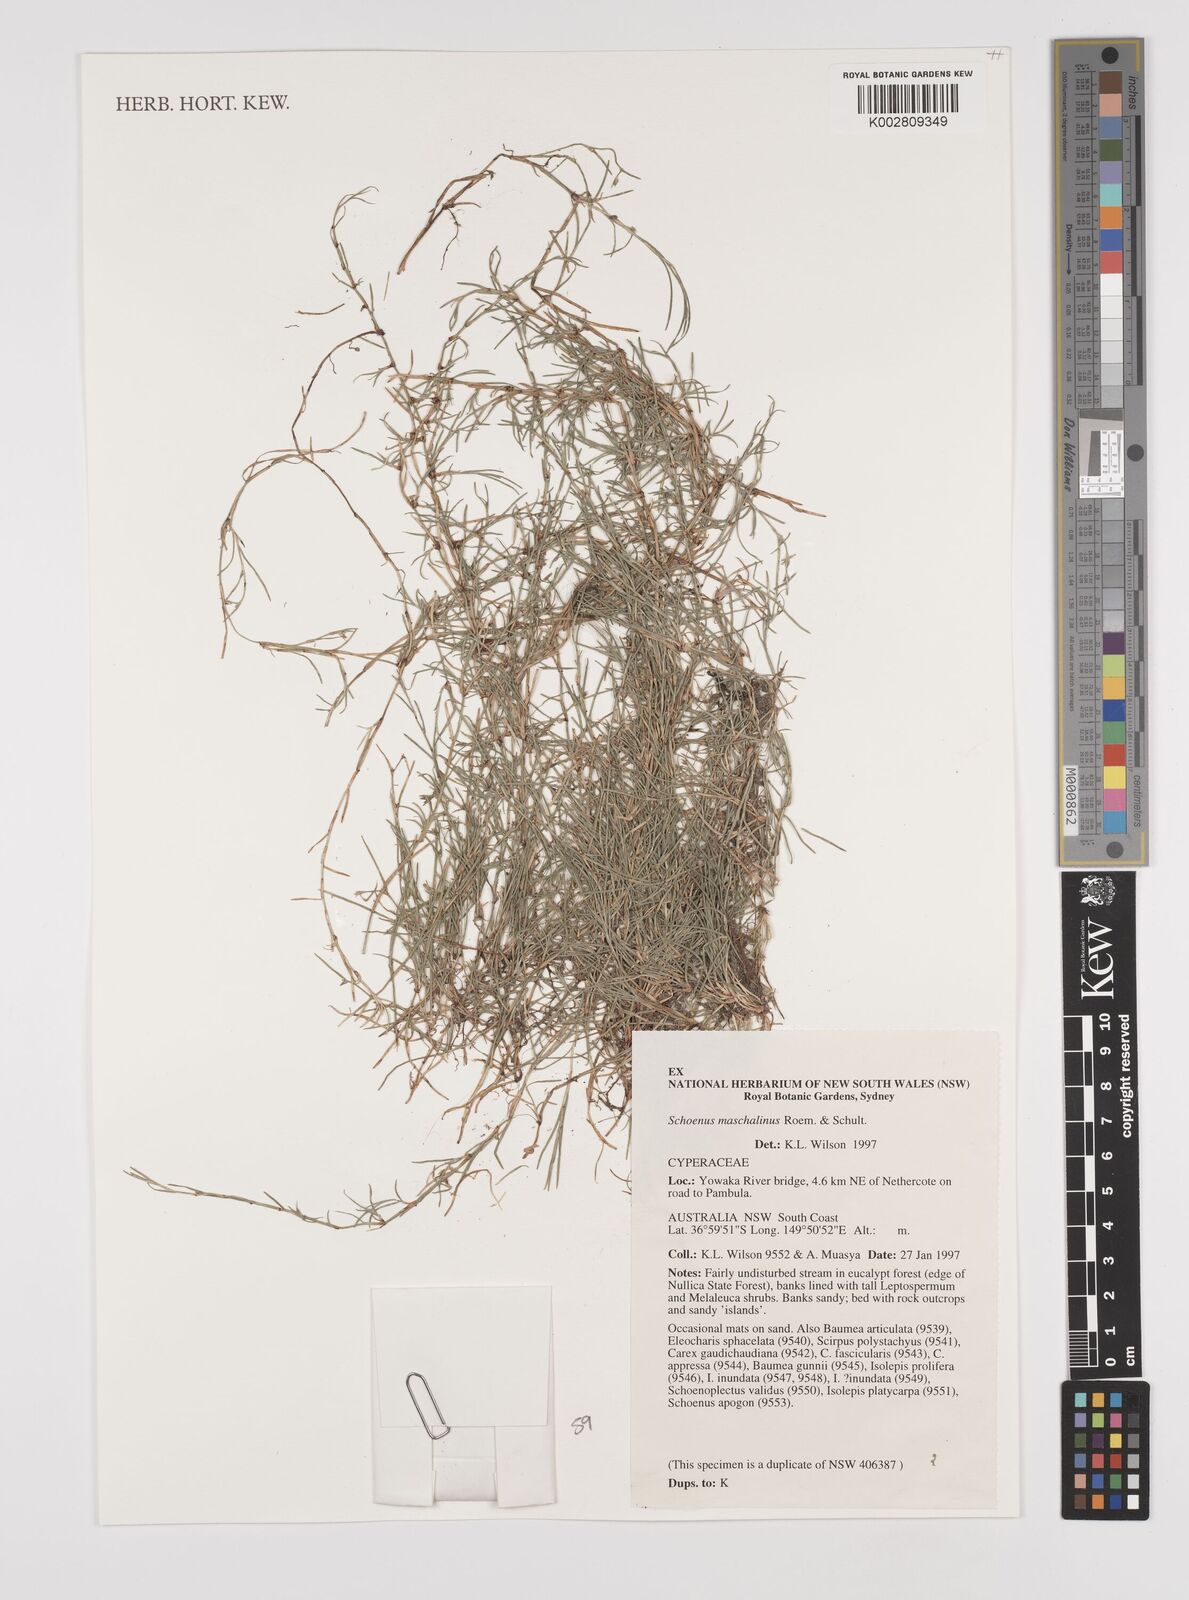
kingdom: Plantae
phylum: Tracheophyta
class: Liliopsida
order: Poales
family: Cyperaceae
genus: Schoenus
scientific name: Schoenus maschalinus
